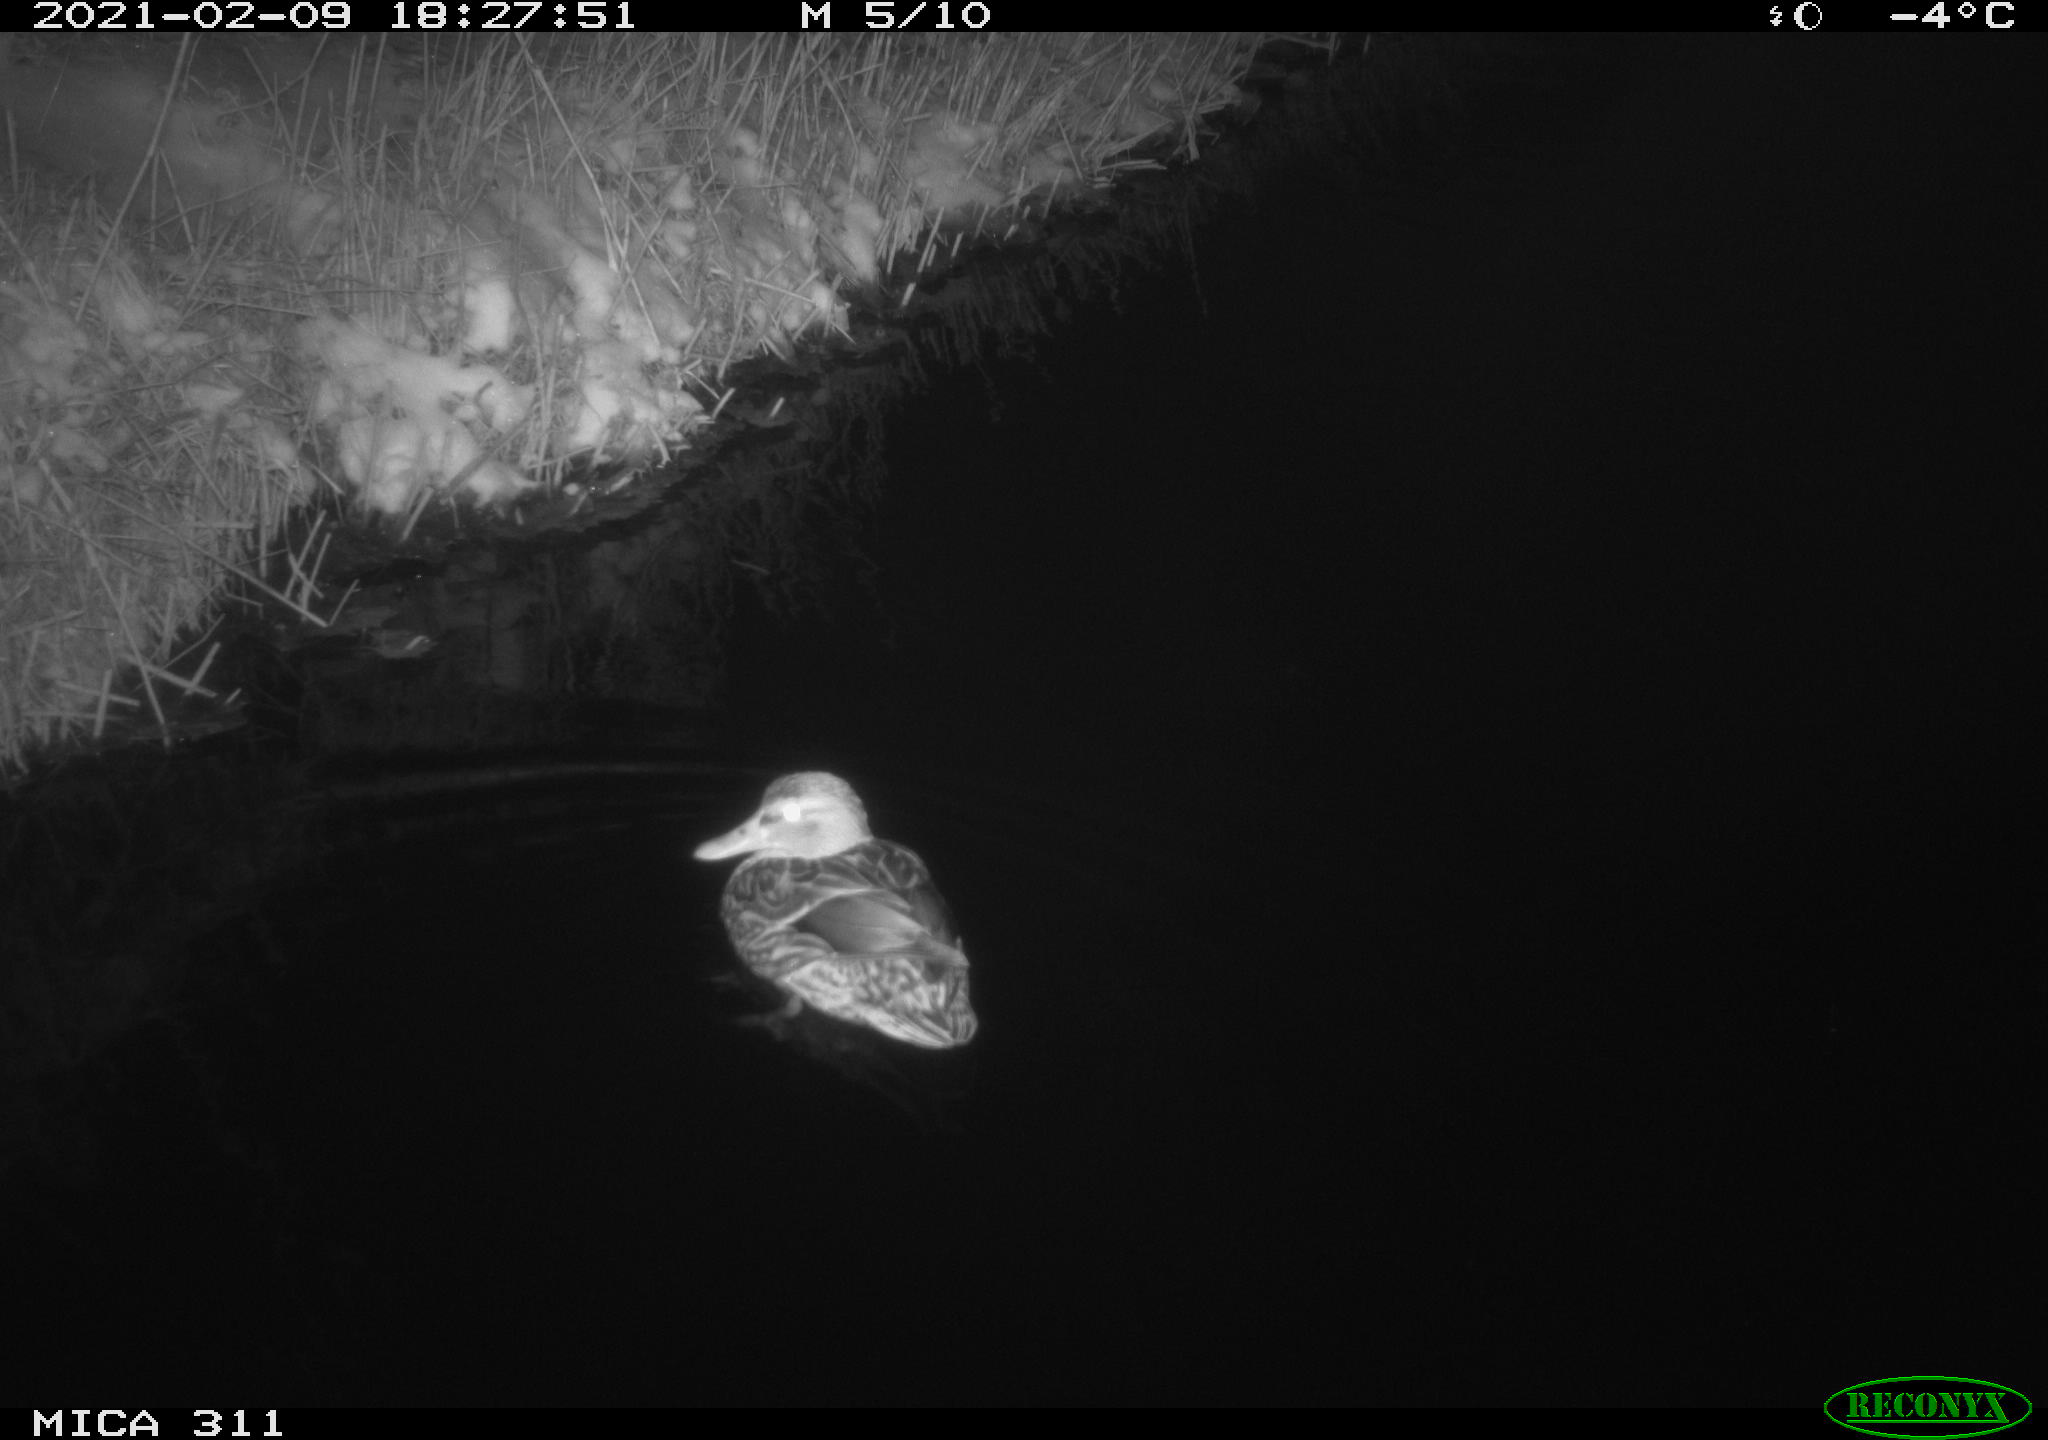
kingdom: Animalia
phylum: Chordata
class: Aves
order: Anseriformes
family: Anatidae
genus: Anas
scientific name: Anas
